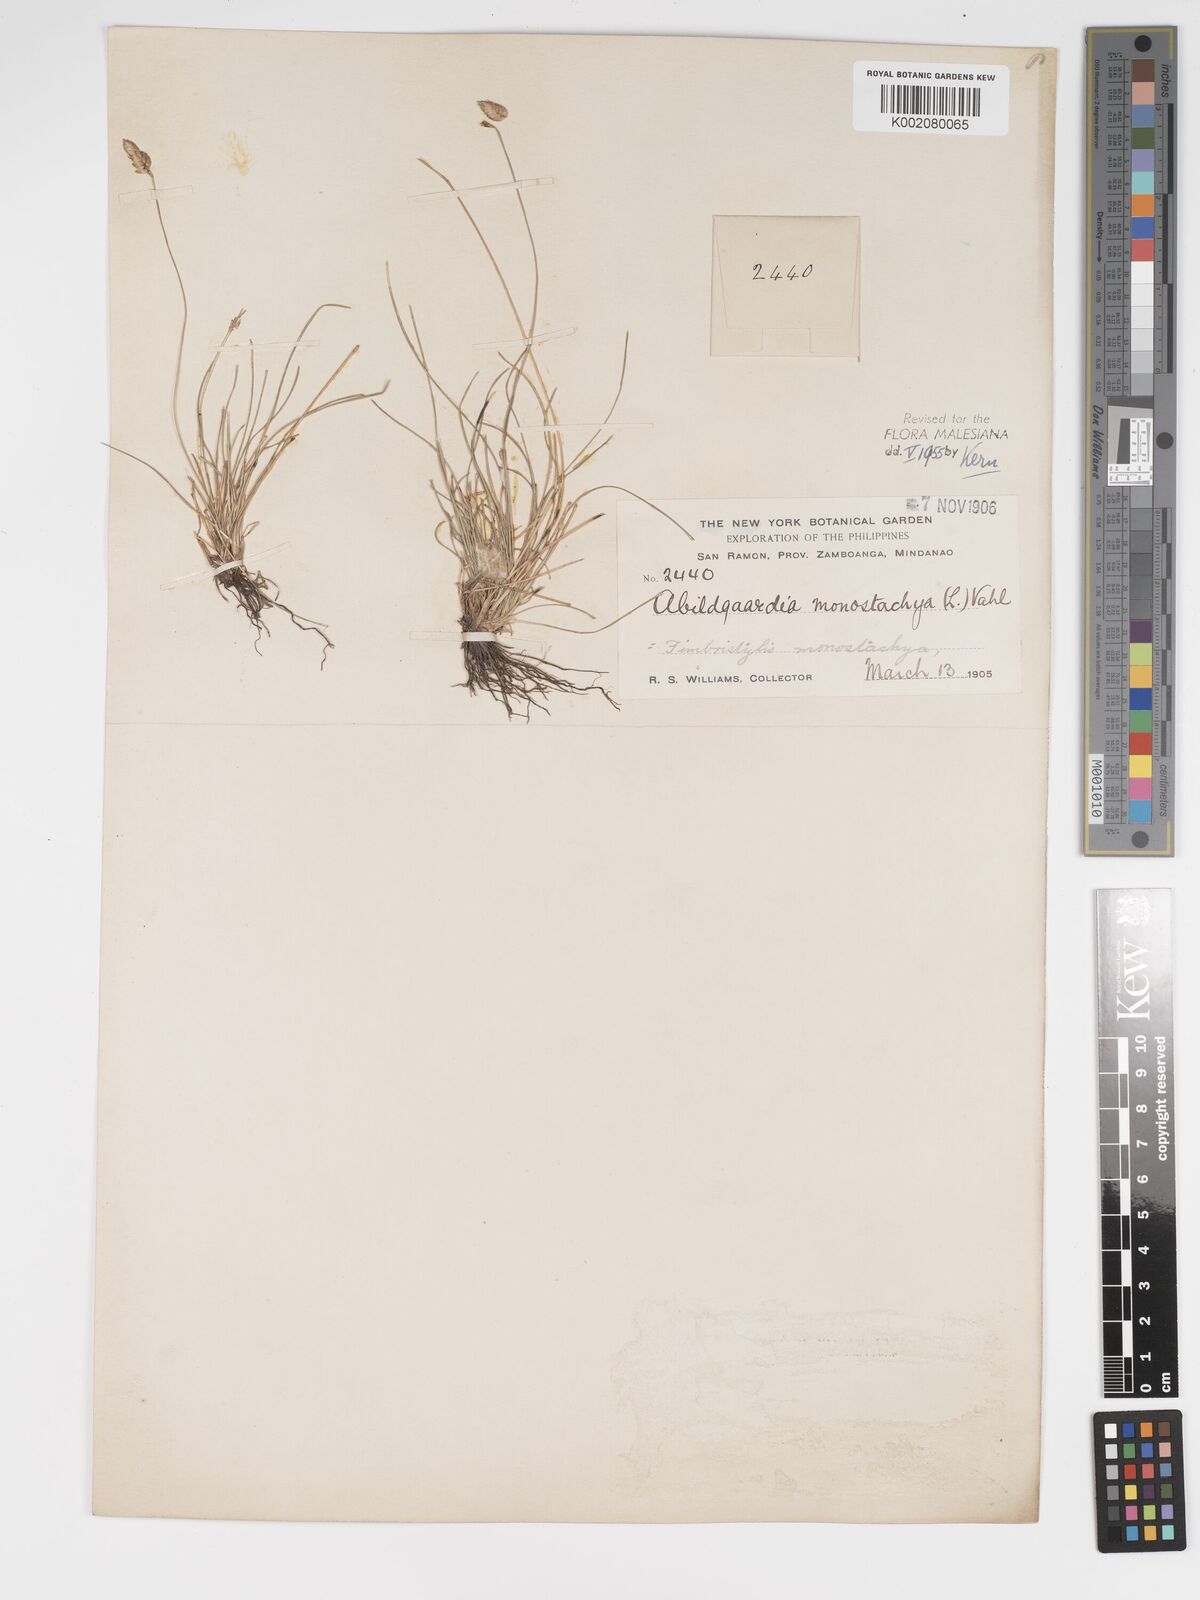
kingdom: Plantae
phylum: Tracheophyta
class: Liliopsida
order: Poales
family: Cyperaceae
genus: Abildgaardia
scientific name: Abildgaardia ovata
